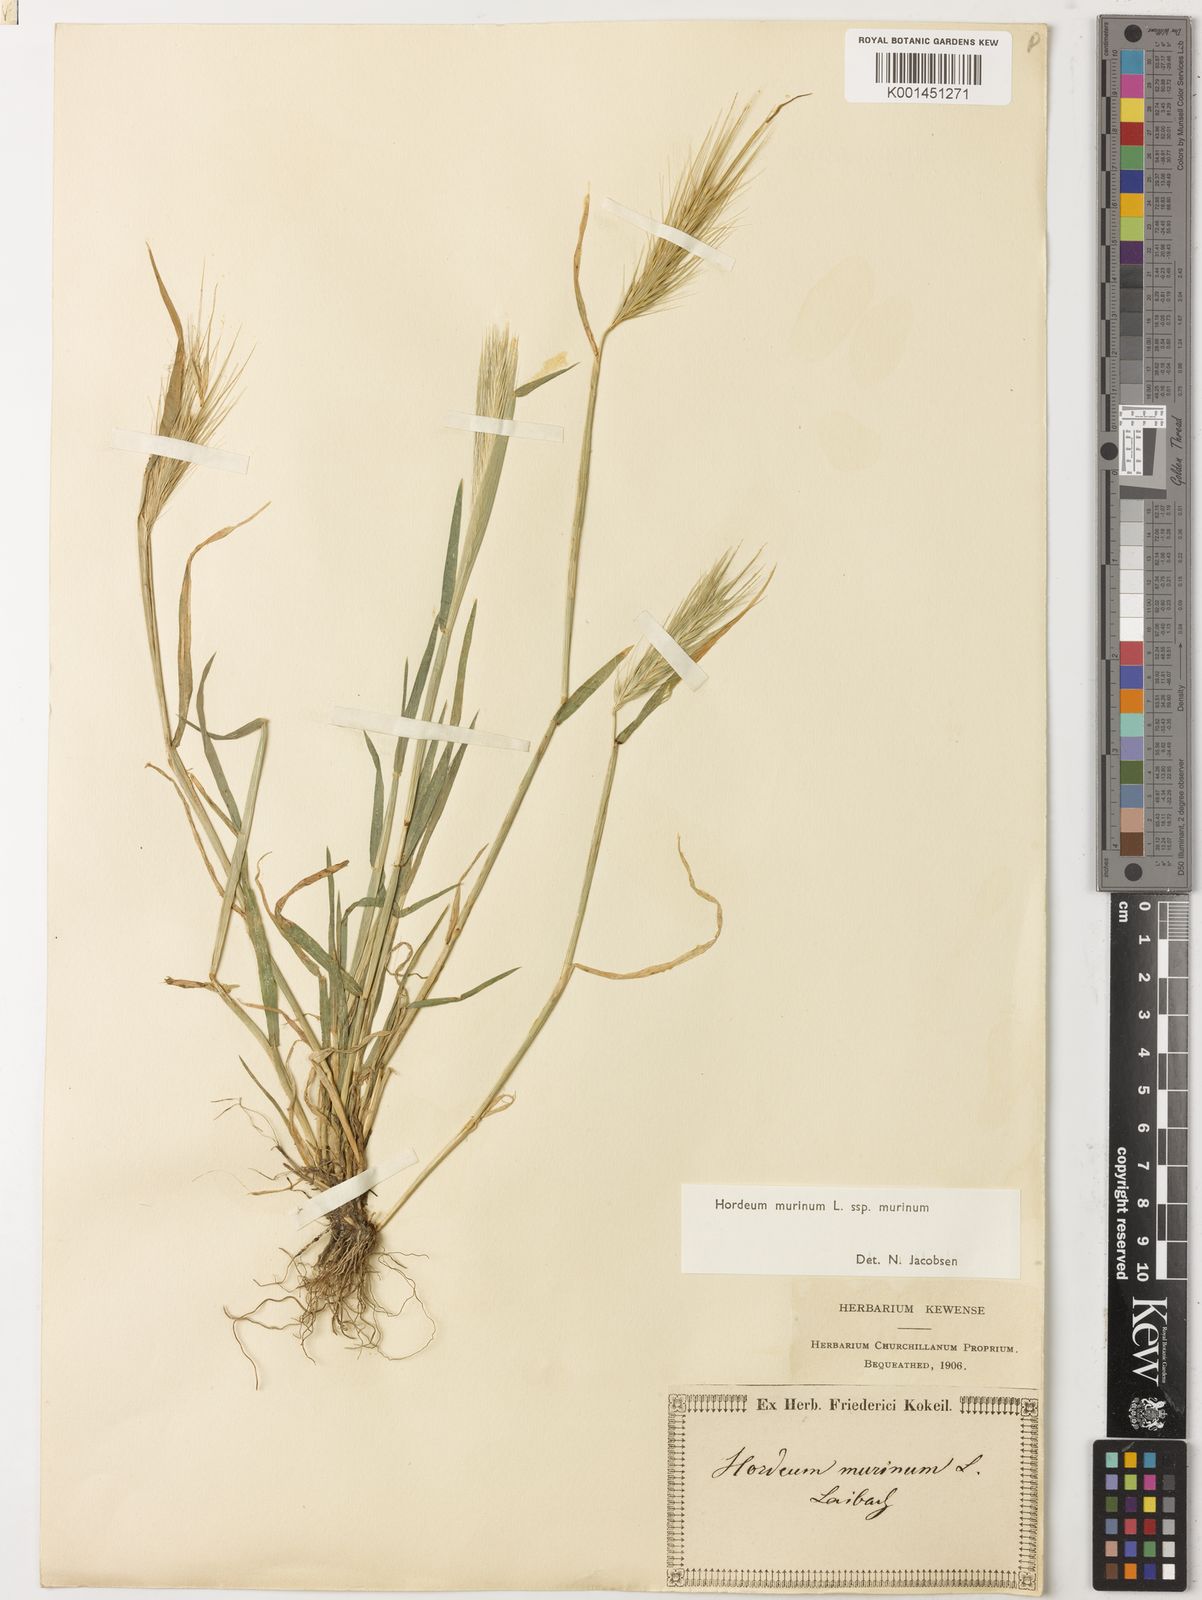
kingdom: Plantae
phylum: Tracheophyta
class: Liliopsida
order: Poales
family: Poaceae
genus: Hordeum
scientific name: Hordeum murinum
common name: Wall barley
